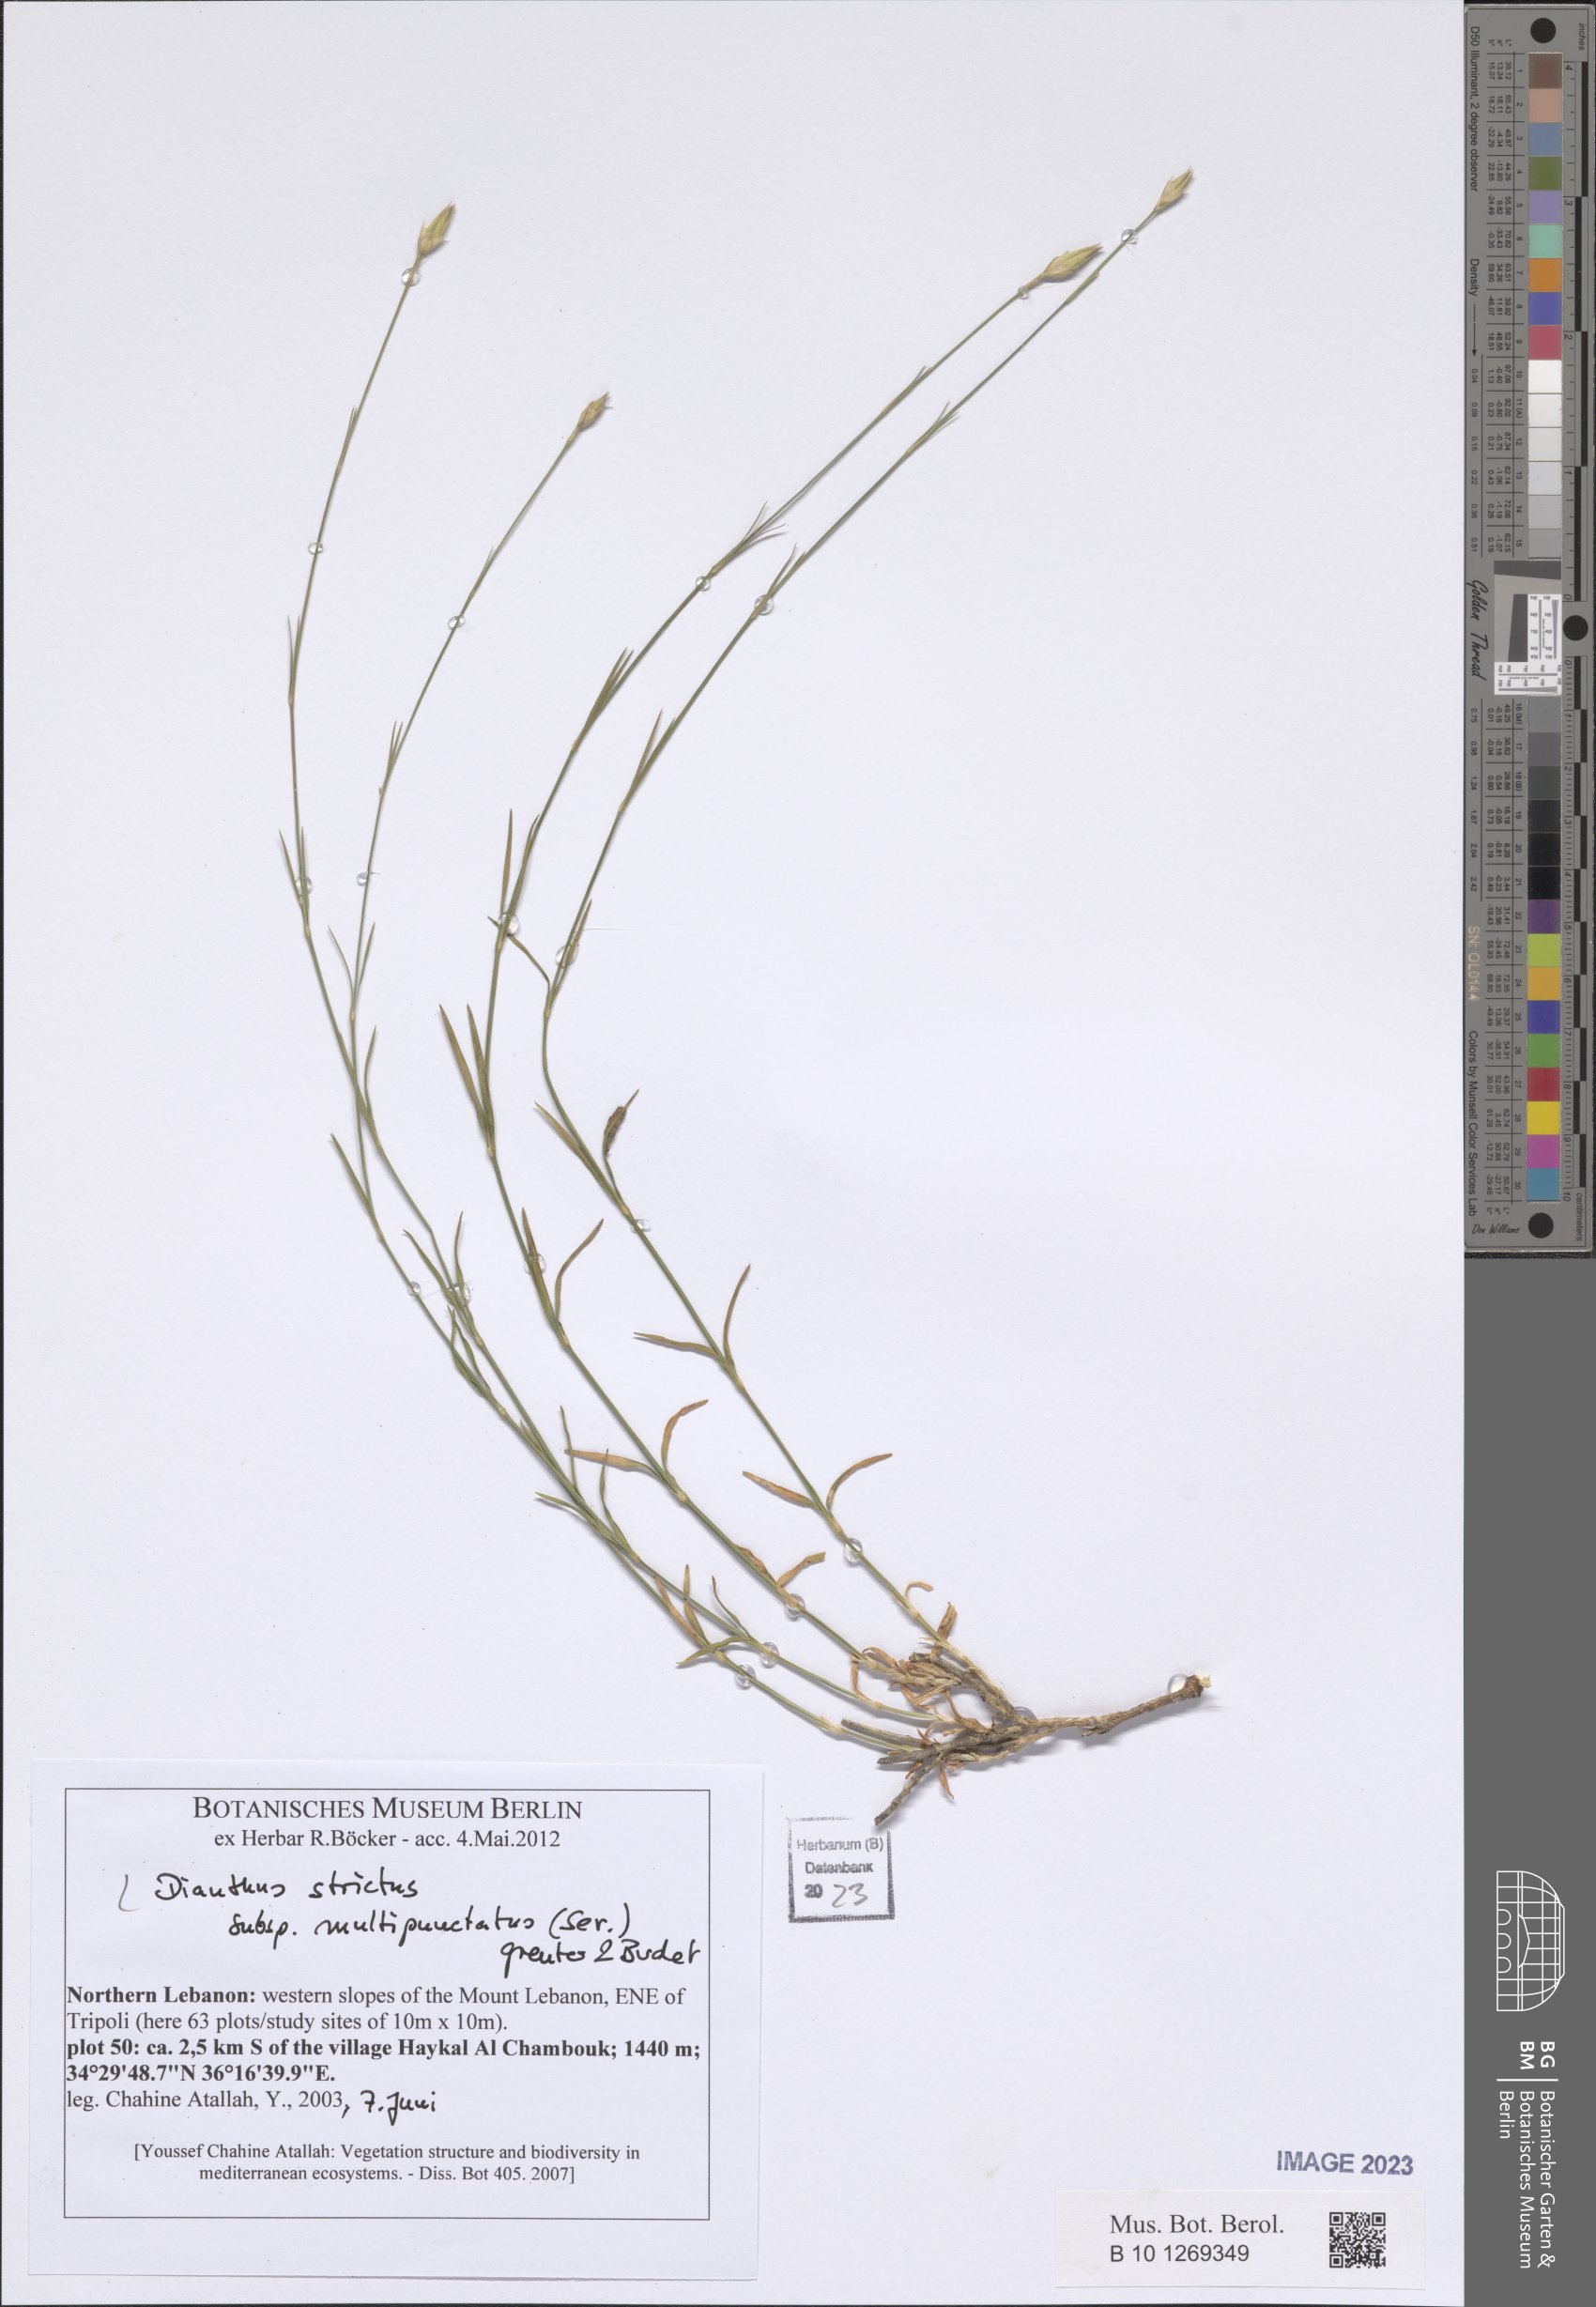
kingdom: Plantae
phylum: Tracheophyta
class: Magnoliopsida
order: Caryophyllales
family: Caryophyllaceae
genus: Dianthus
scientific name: Dianthus strictus
